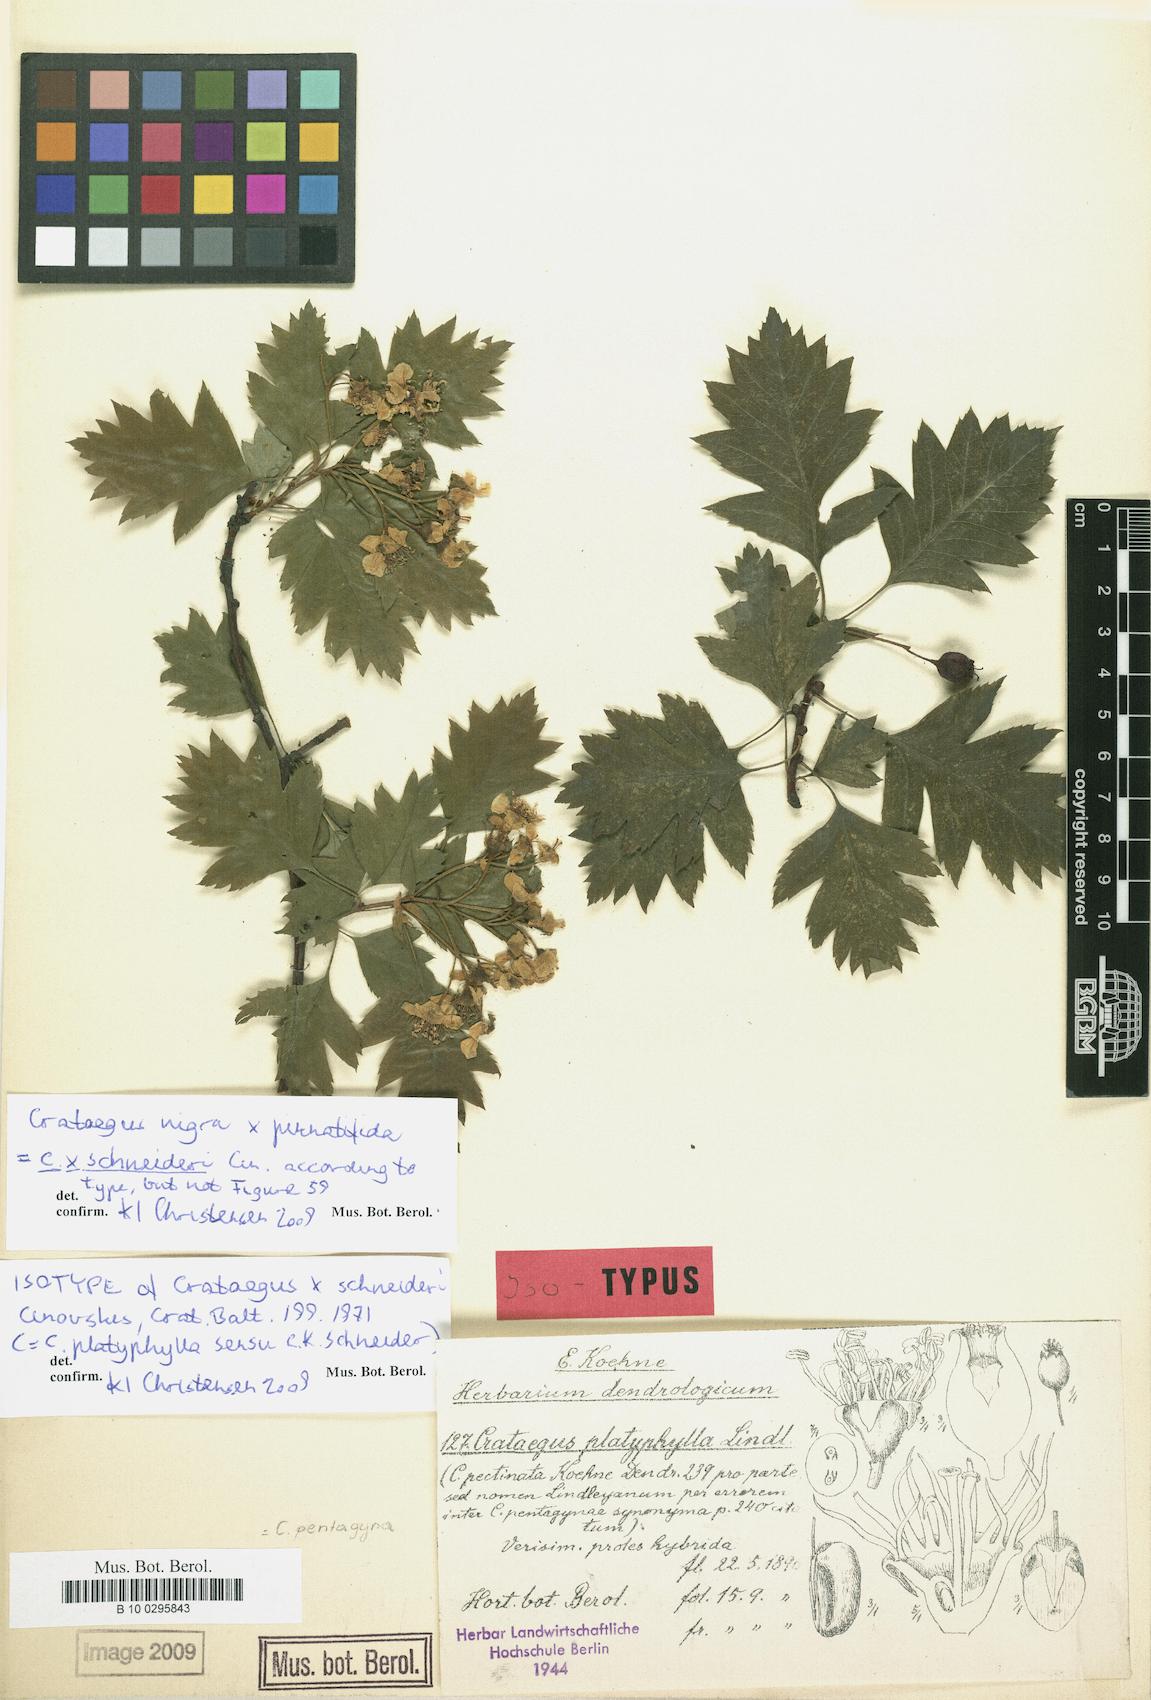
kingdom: Plantae
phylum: Tracheophyta
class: Magnoliopsida
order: Rosales
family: Rosaceae
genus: Crataegus
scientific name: Crataegus lambertiana
